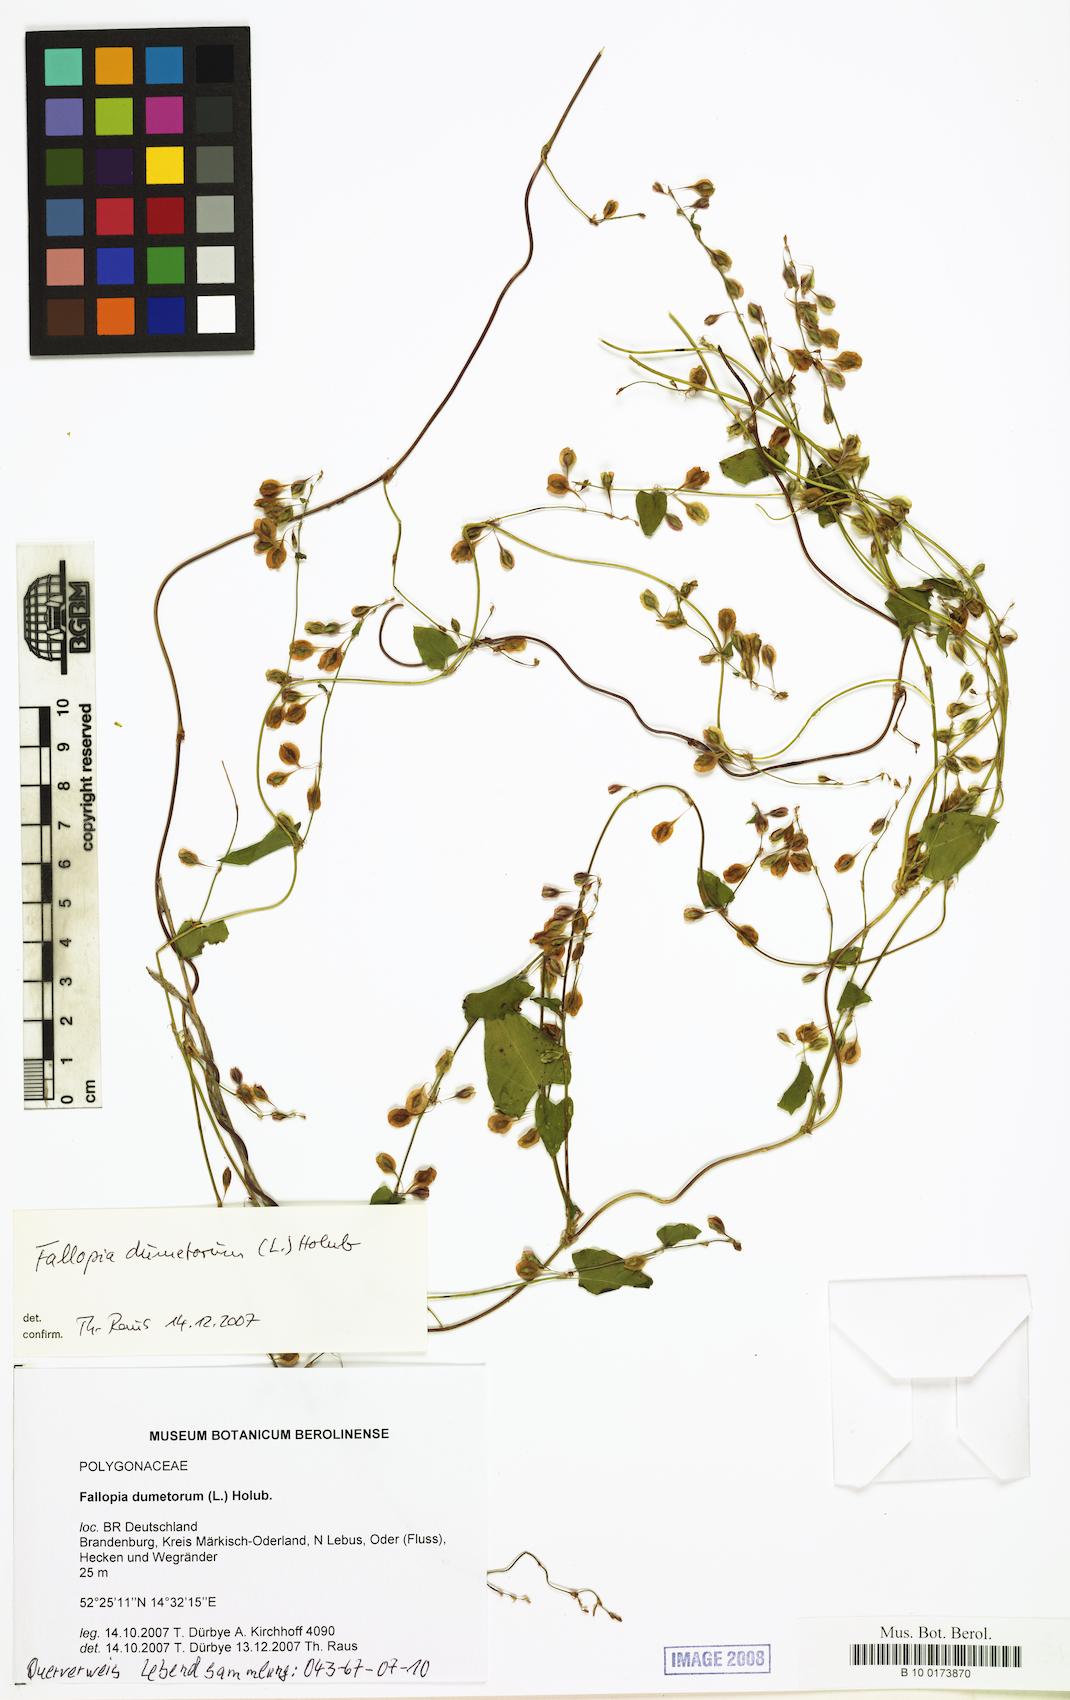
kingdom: Plantae
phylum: Tracheophyta
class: Magnoliopsida
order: Caryophyllales
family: Polygonaceae
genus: Fallopia
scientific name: Fallopia dumetorum
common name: Copse-bindweed
